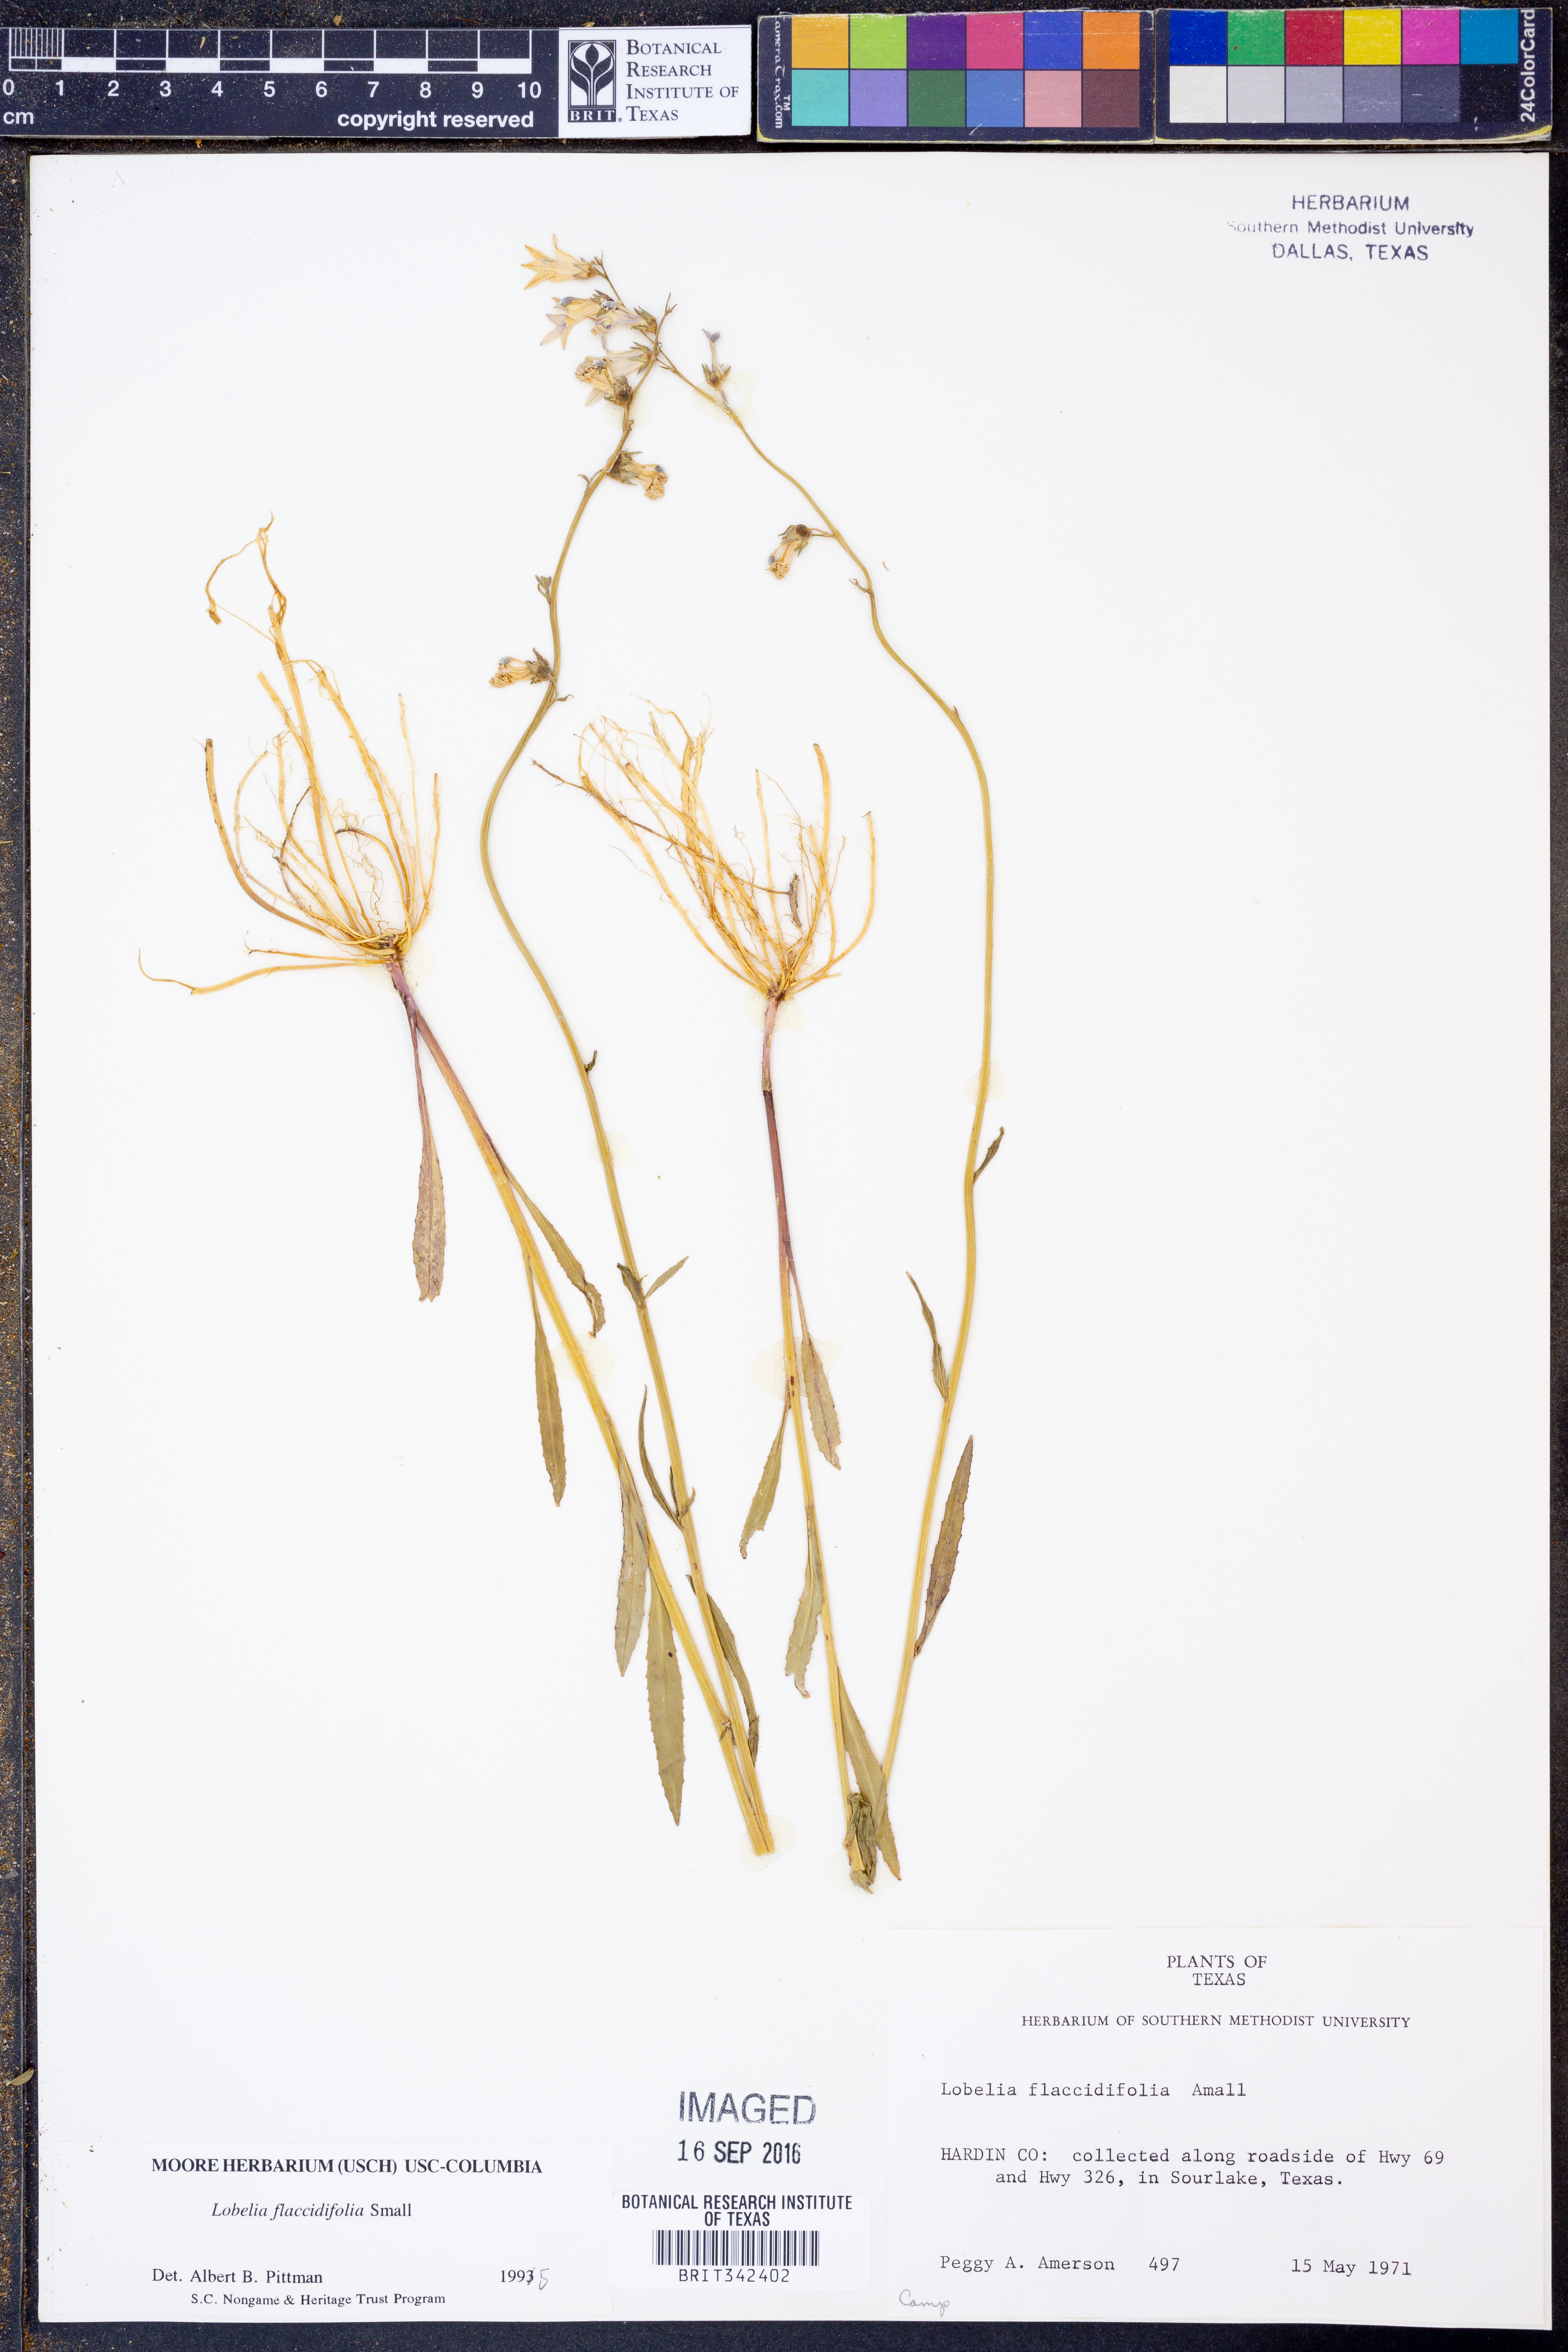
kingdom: Plantae
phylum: Tracheophyta
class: Magnoliopsida
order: Asterales
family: Campanulaceae
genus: Lobelia
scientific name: Lobelia flaccidifolia
